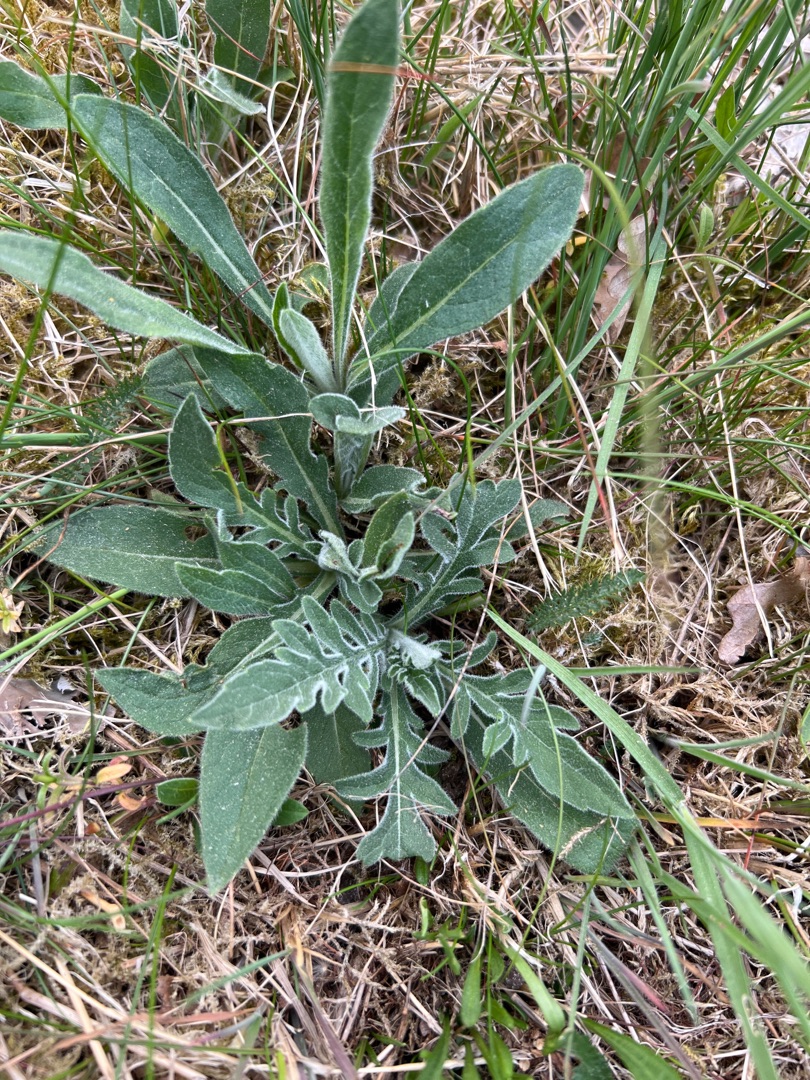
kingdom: Plantae
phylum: Tracheophyta
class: Magnoliopsida
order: Dipsacales
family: Caprifoliaceae
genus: Knautia
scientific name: Knautia arvensis
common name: Blåhat
